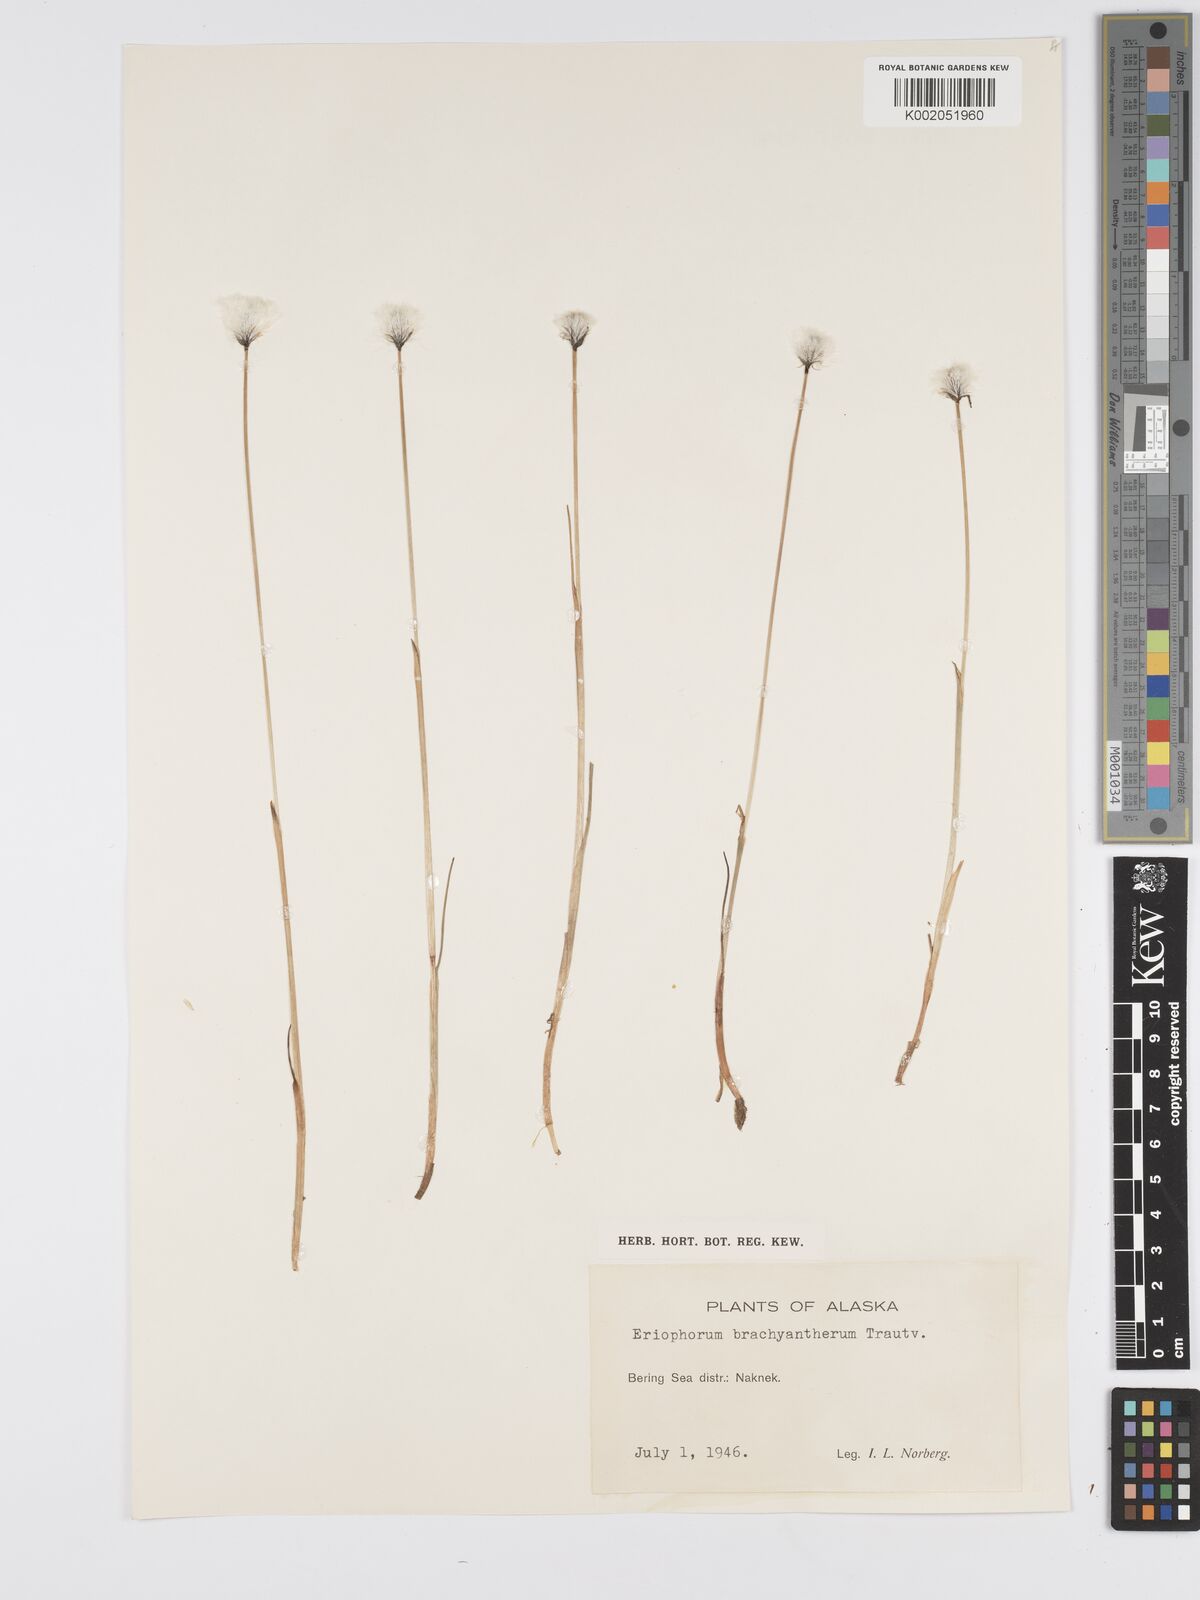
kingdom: Plantae
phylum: Tracheophyta
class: Liliopsida
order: Poales
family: Cyperaceae
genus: Eriophorum
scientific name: Eriophorum brachyantherum
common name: Closed-sheathed cottongrass
